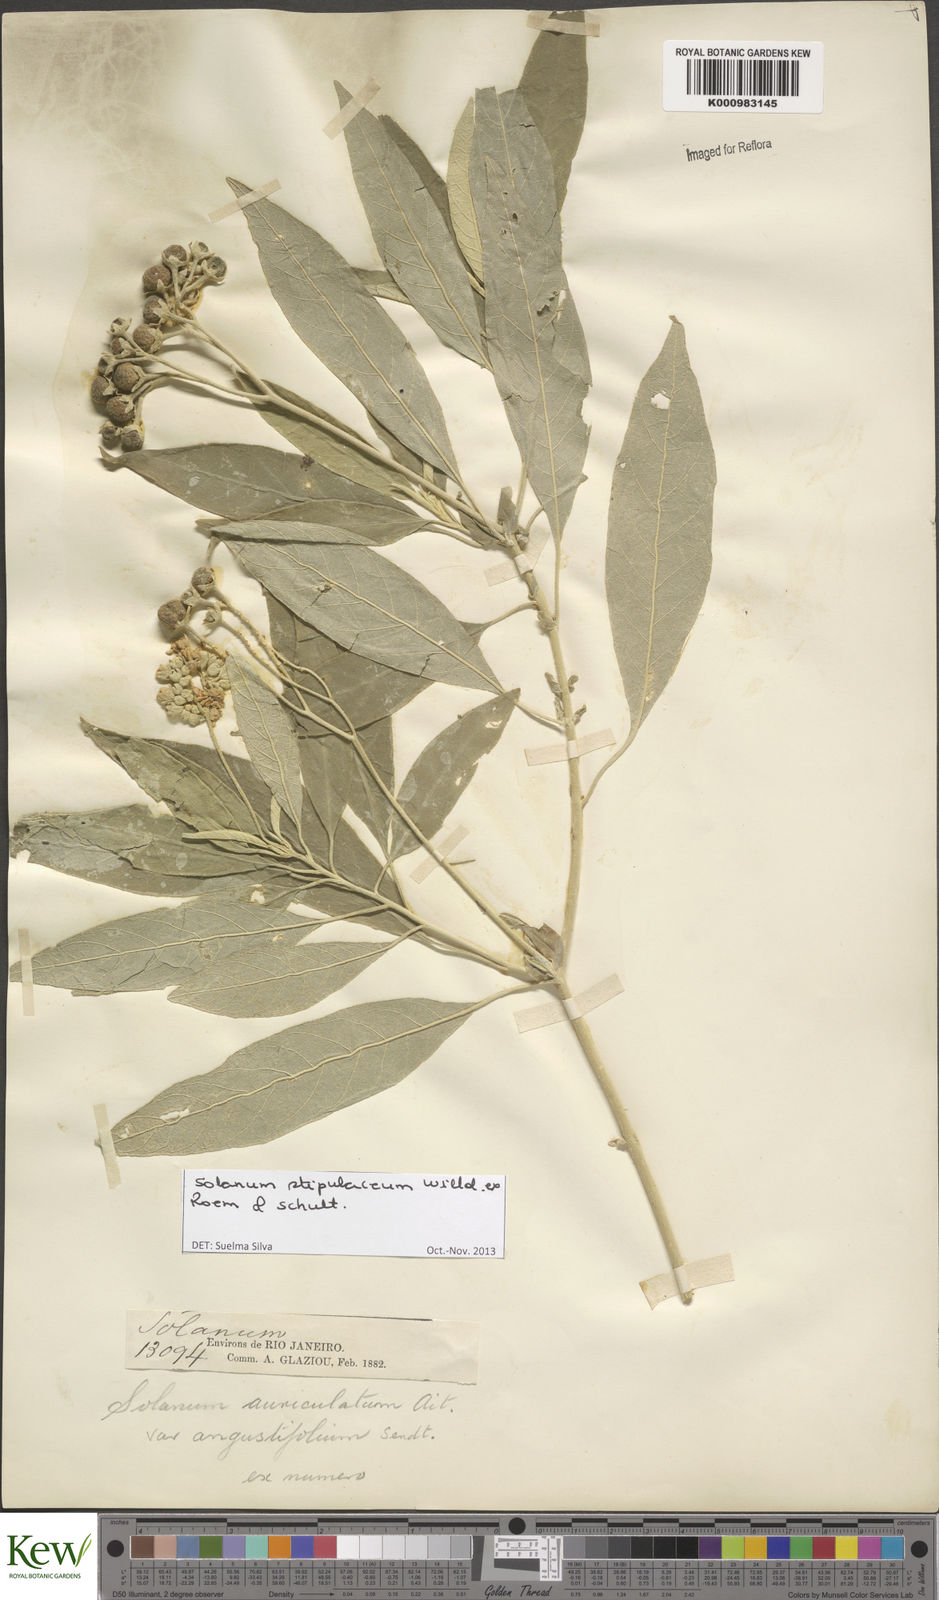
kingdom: Plantae
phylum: Tracheophyta
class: Magnoliopsida
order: Solanales
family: Solanaceae
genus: Solanum
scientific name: Solanum stipulaceum
